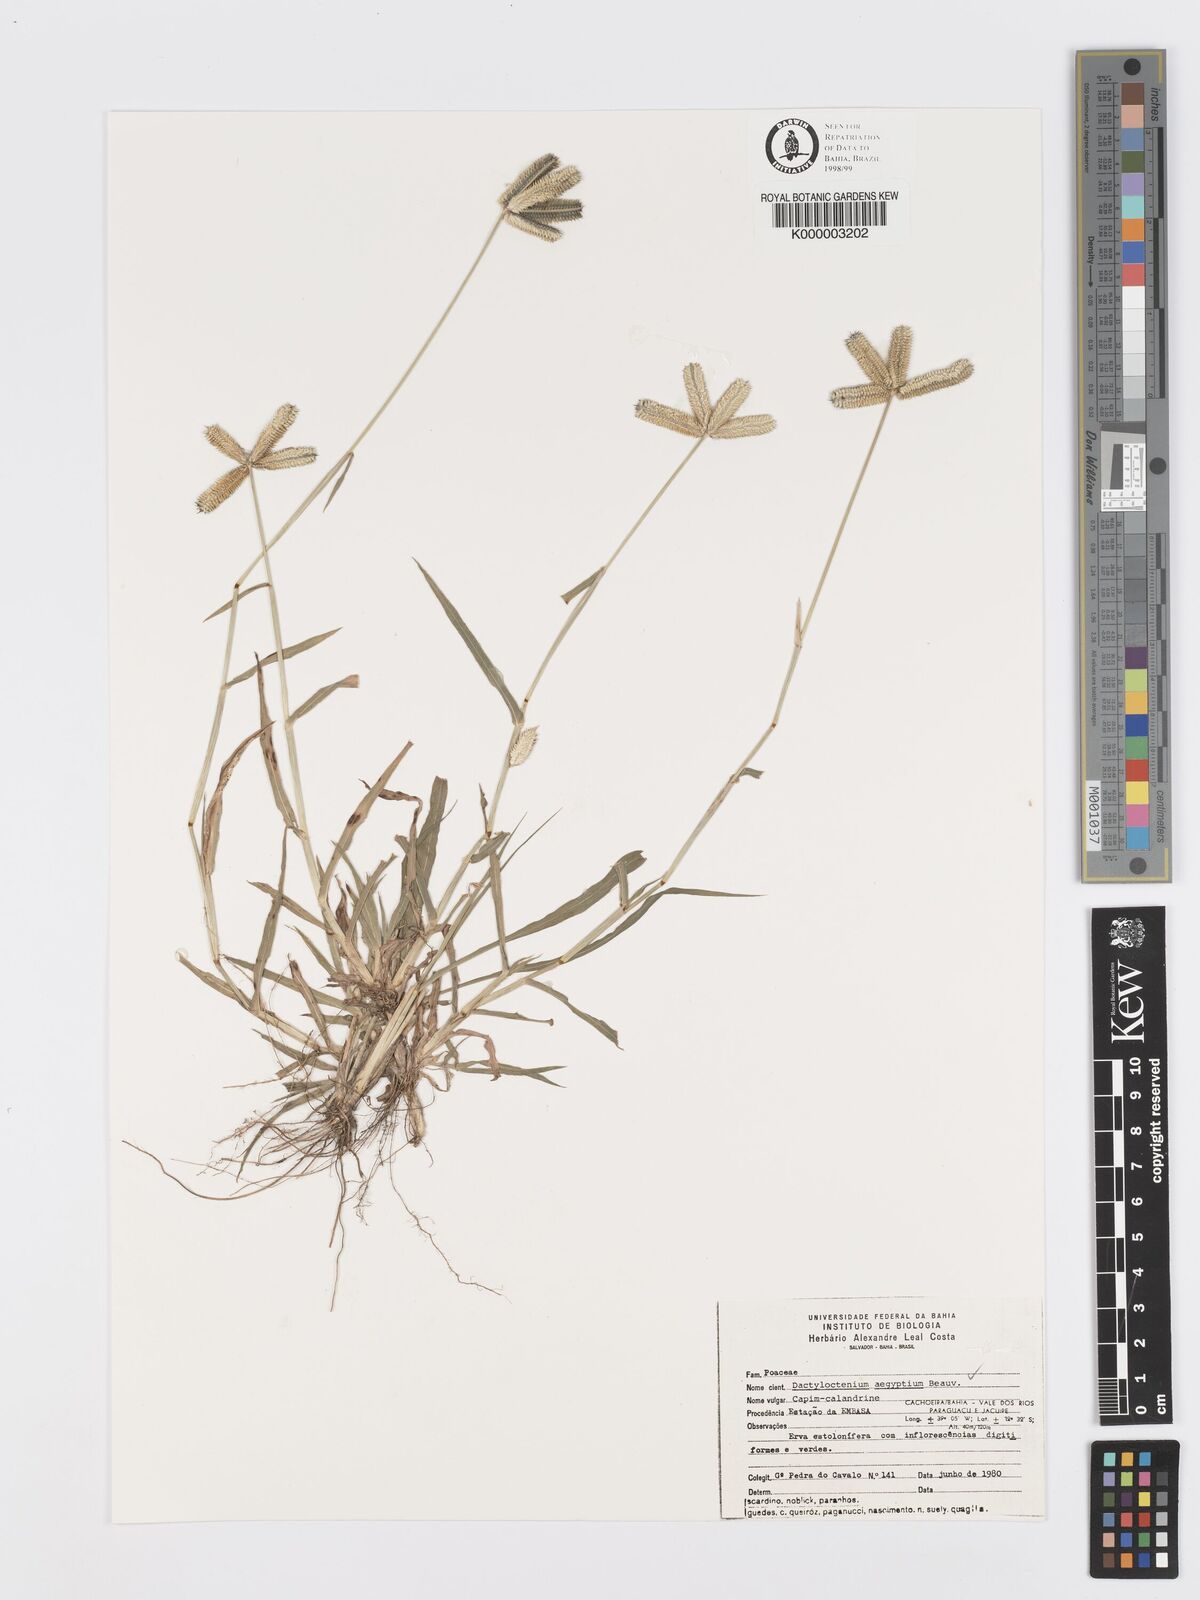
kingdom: Plantae
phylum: Tracheophyta
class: Liliopsida
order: Poales
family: Poaceae
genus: Dactyloctenium
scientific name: Dactyloctenium aegyptium
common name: Egyptian grass
